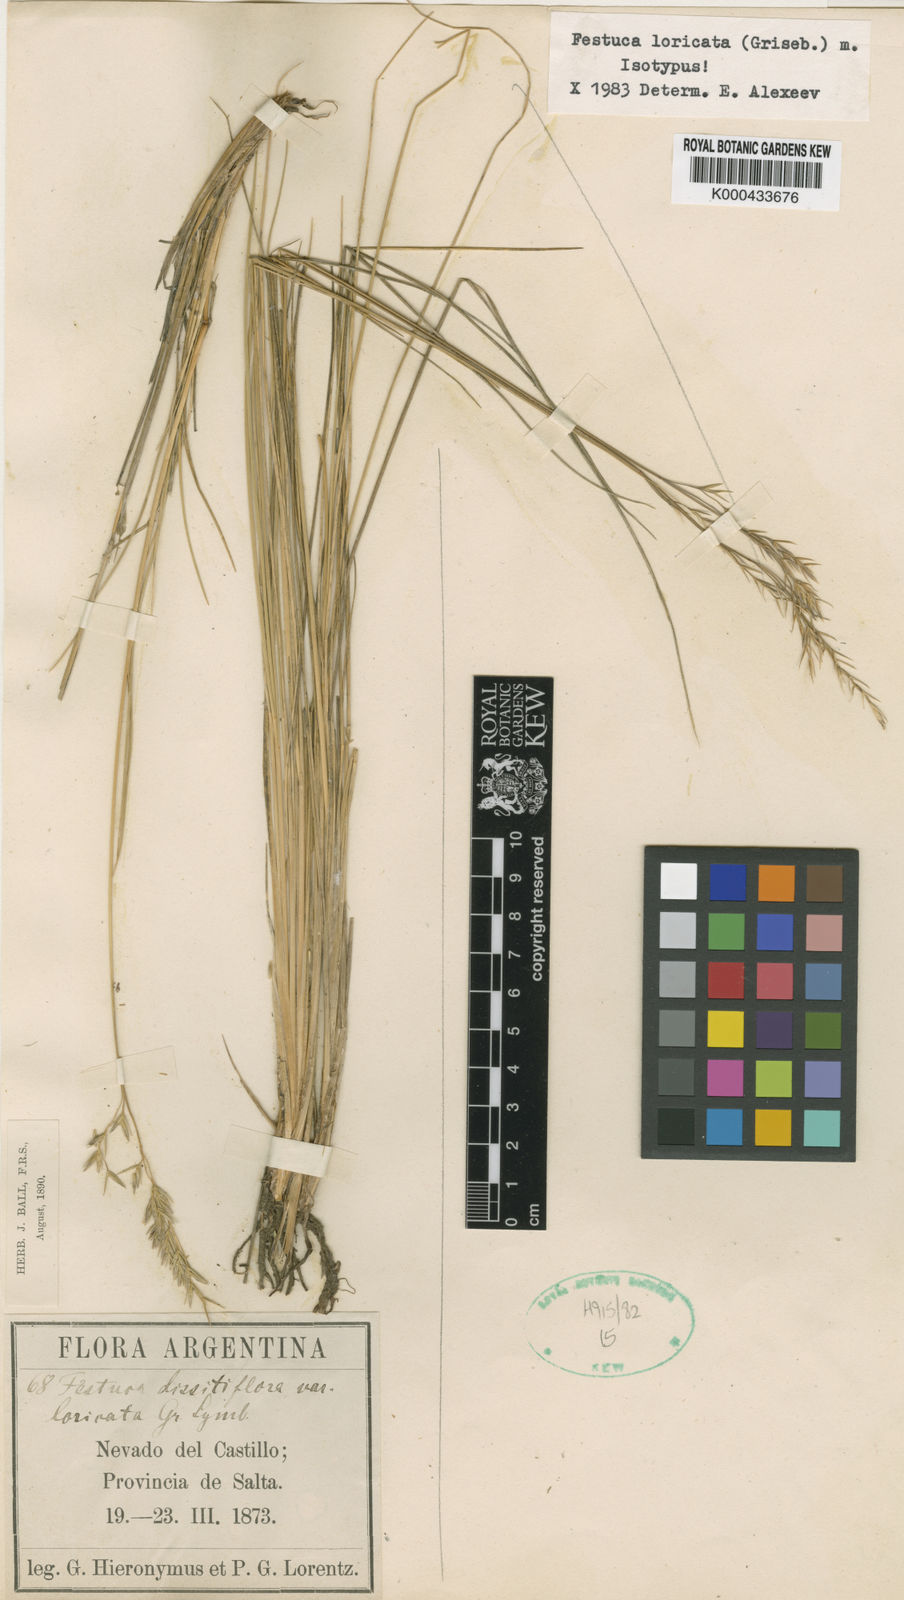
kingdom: Plantae
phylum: Tracheophyta
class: Liliopsida
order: Poales
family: Poaceae
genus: Festuca
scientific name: Festuca fiebrigii
